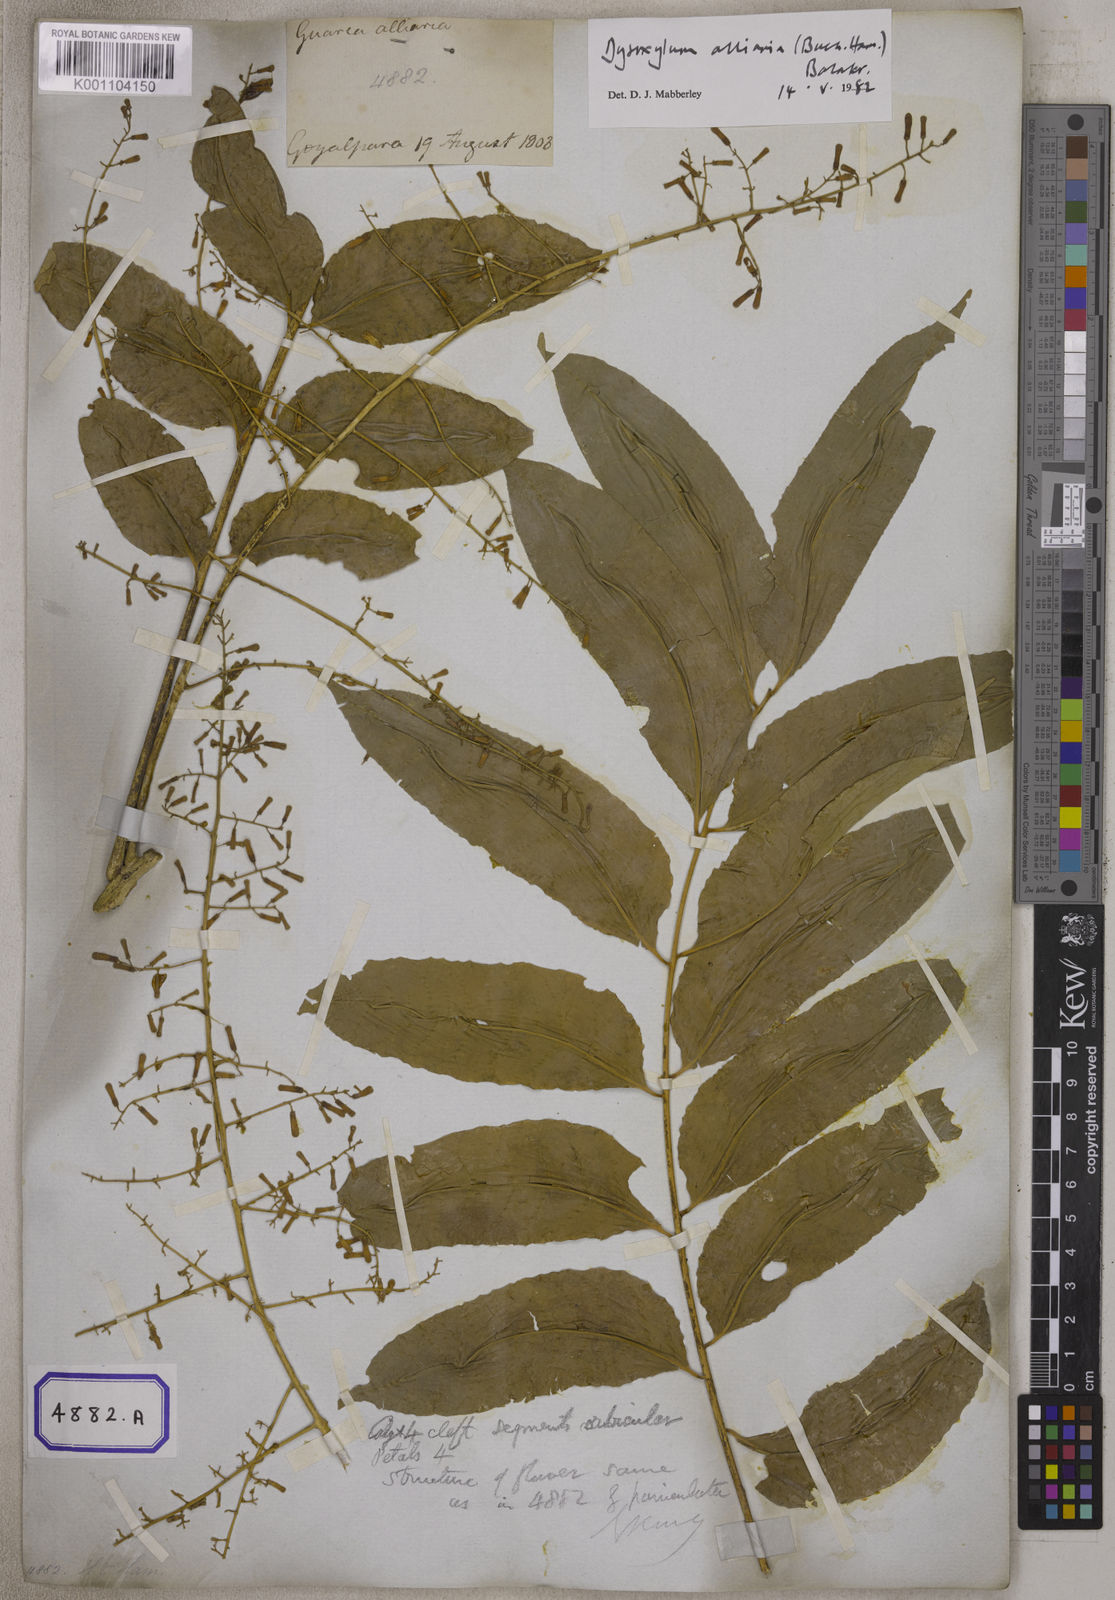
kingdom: Plantae
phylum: Tracheophyta
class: Magnoliopsida
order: Sapindales
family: Meliaceae
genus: Guarea
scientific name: Guarea
